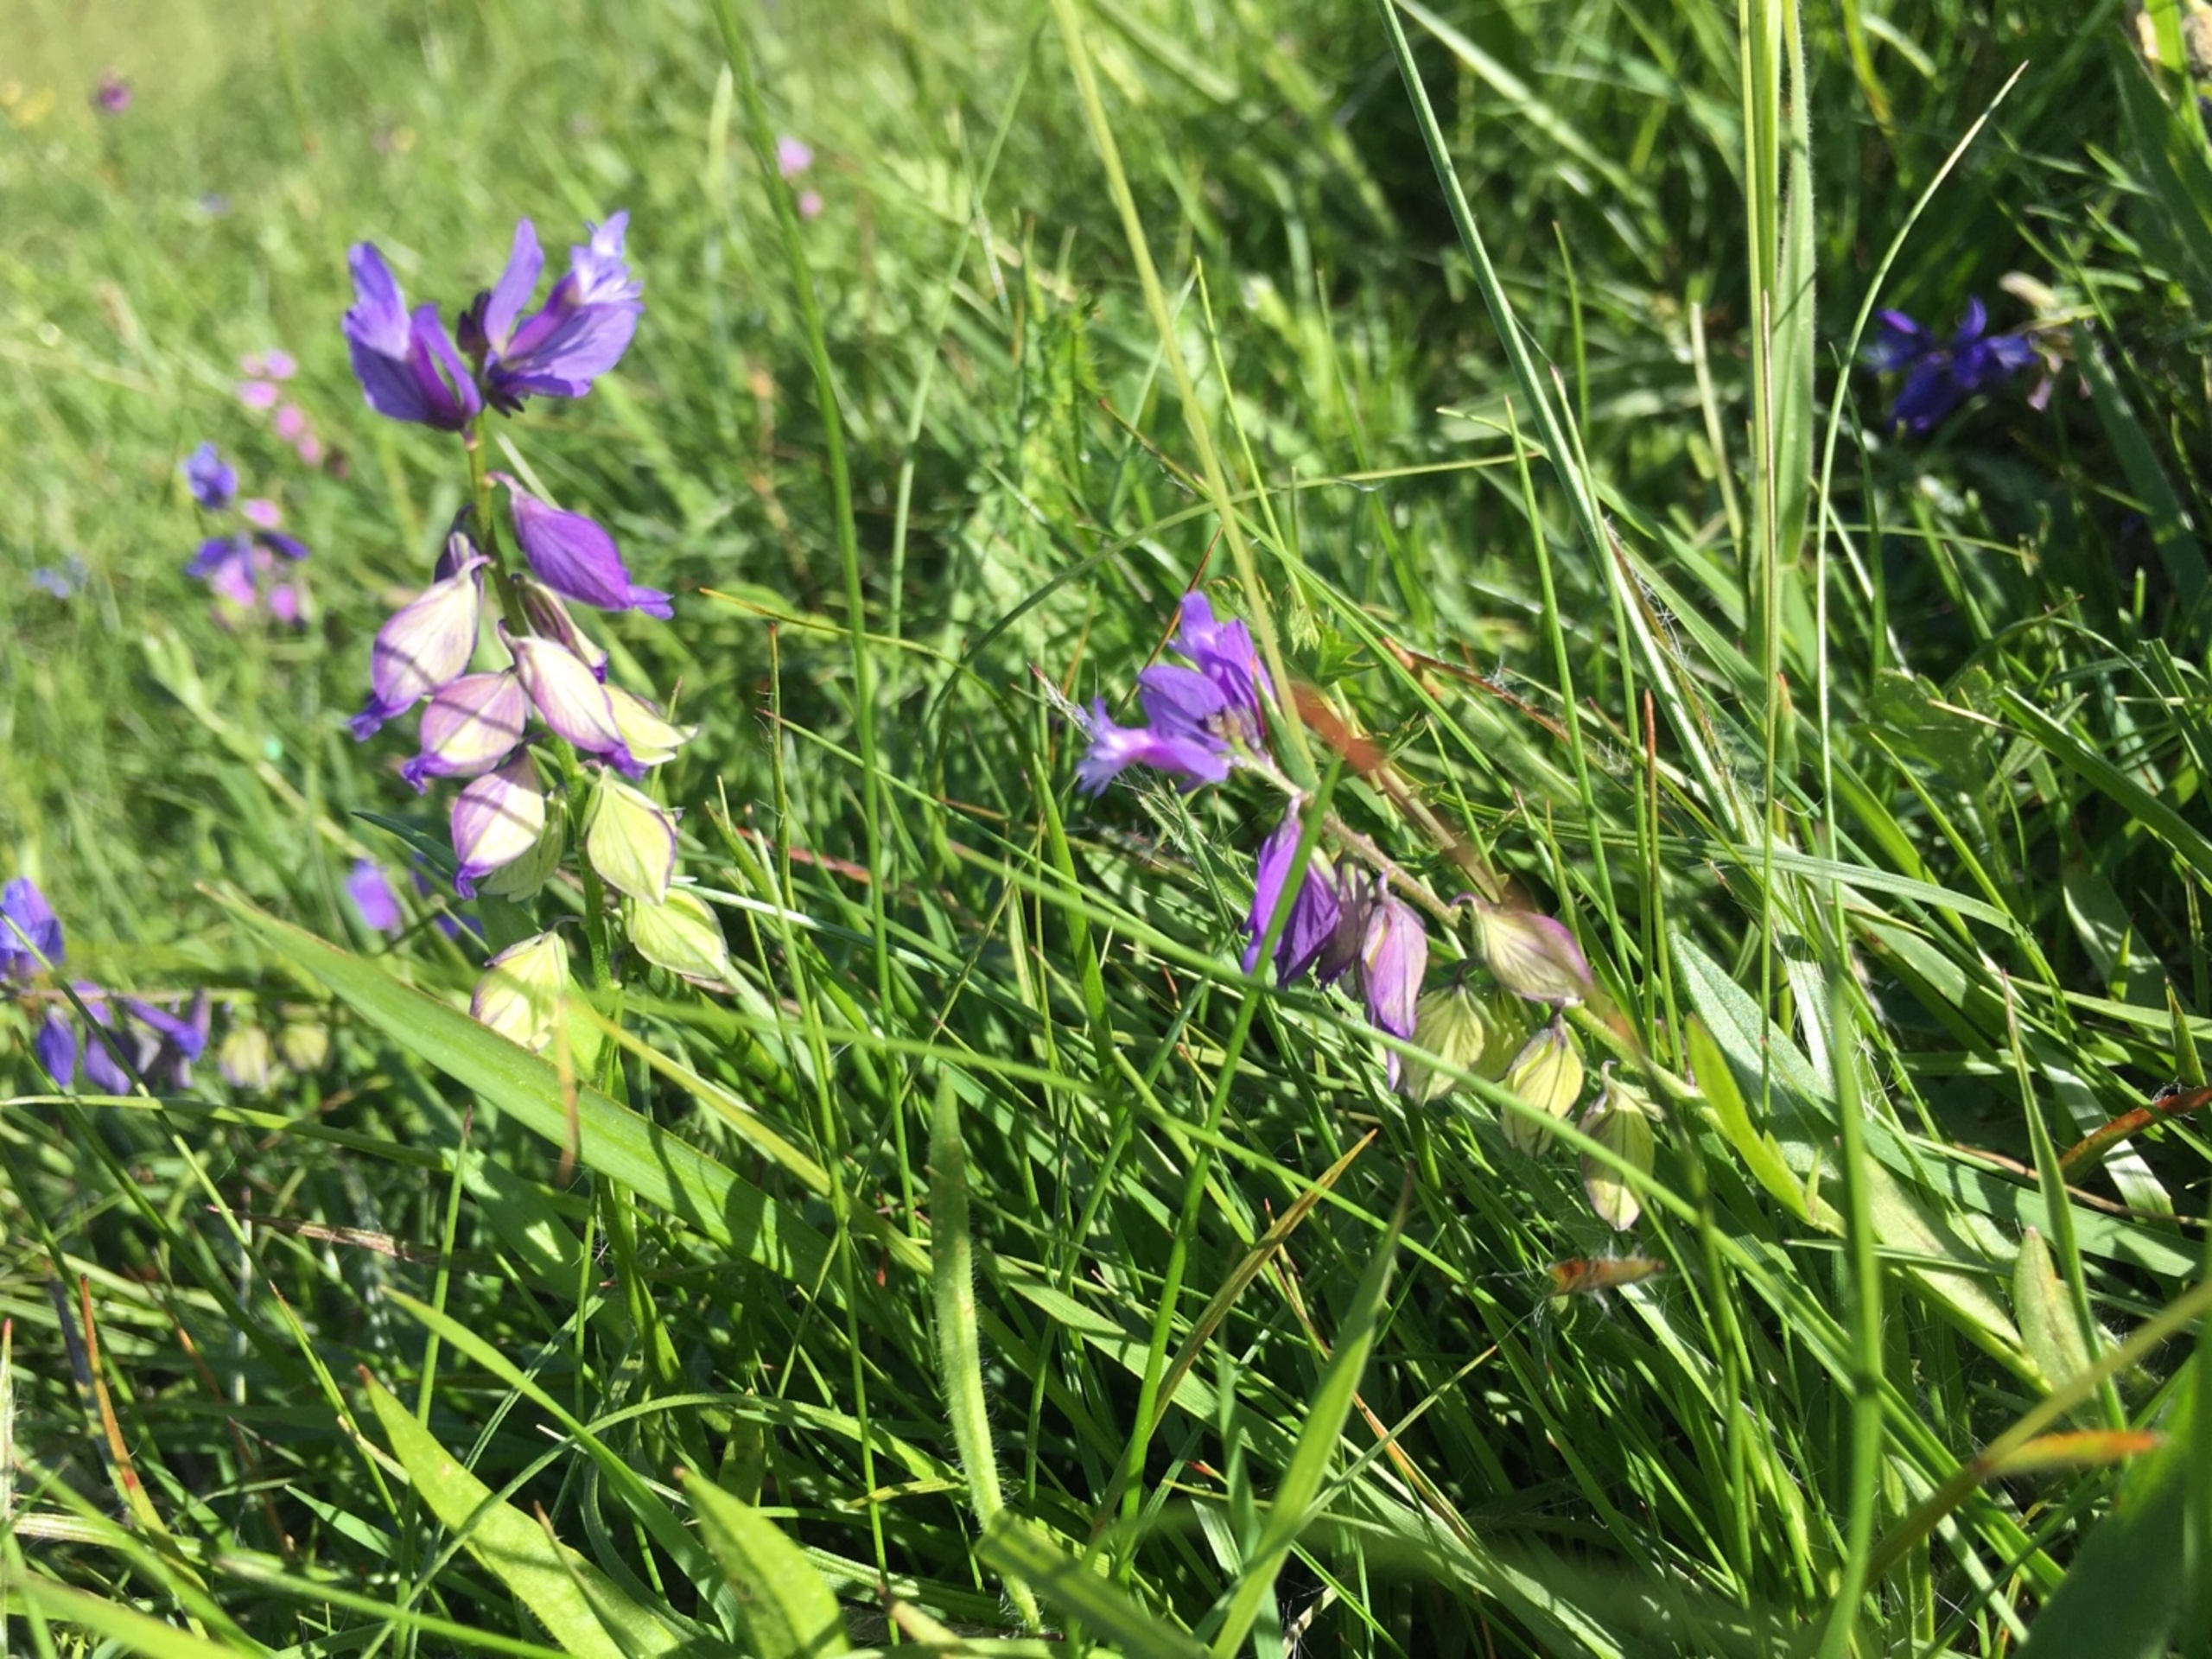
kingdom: Plantae
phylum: Tracheophyta
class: Magnoliopsida
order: Fabales
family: Polygalaceae
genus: Polygala
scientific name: Polygala vulgaris
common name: Almindelig mælkeurt
